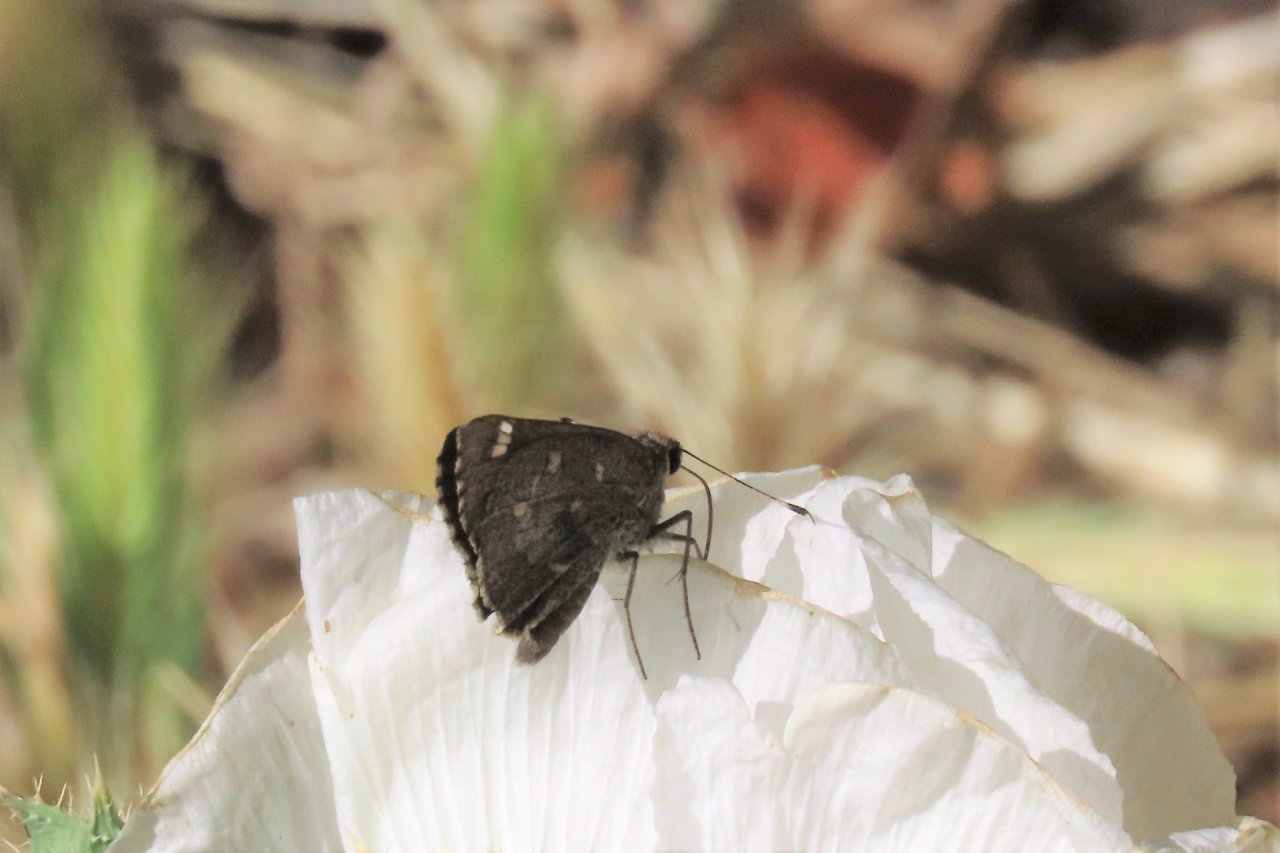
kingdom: Animalia
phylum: Arthropoda
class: Insecta
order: Lepidoptera
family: Hesperiidae
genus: Atrytonopsis
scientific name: Atrytonopsis ovinia
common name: Sheep Skipper
